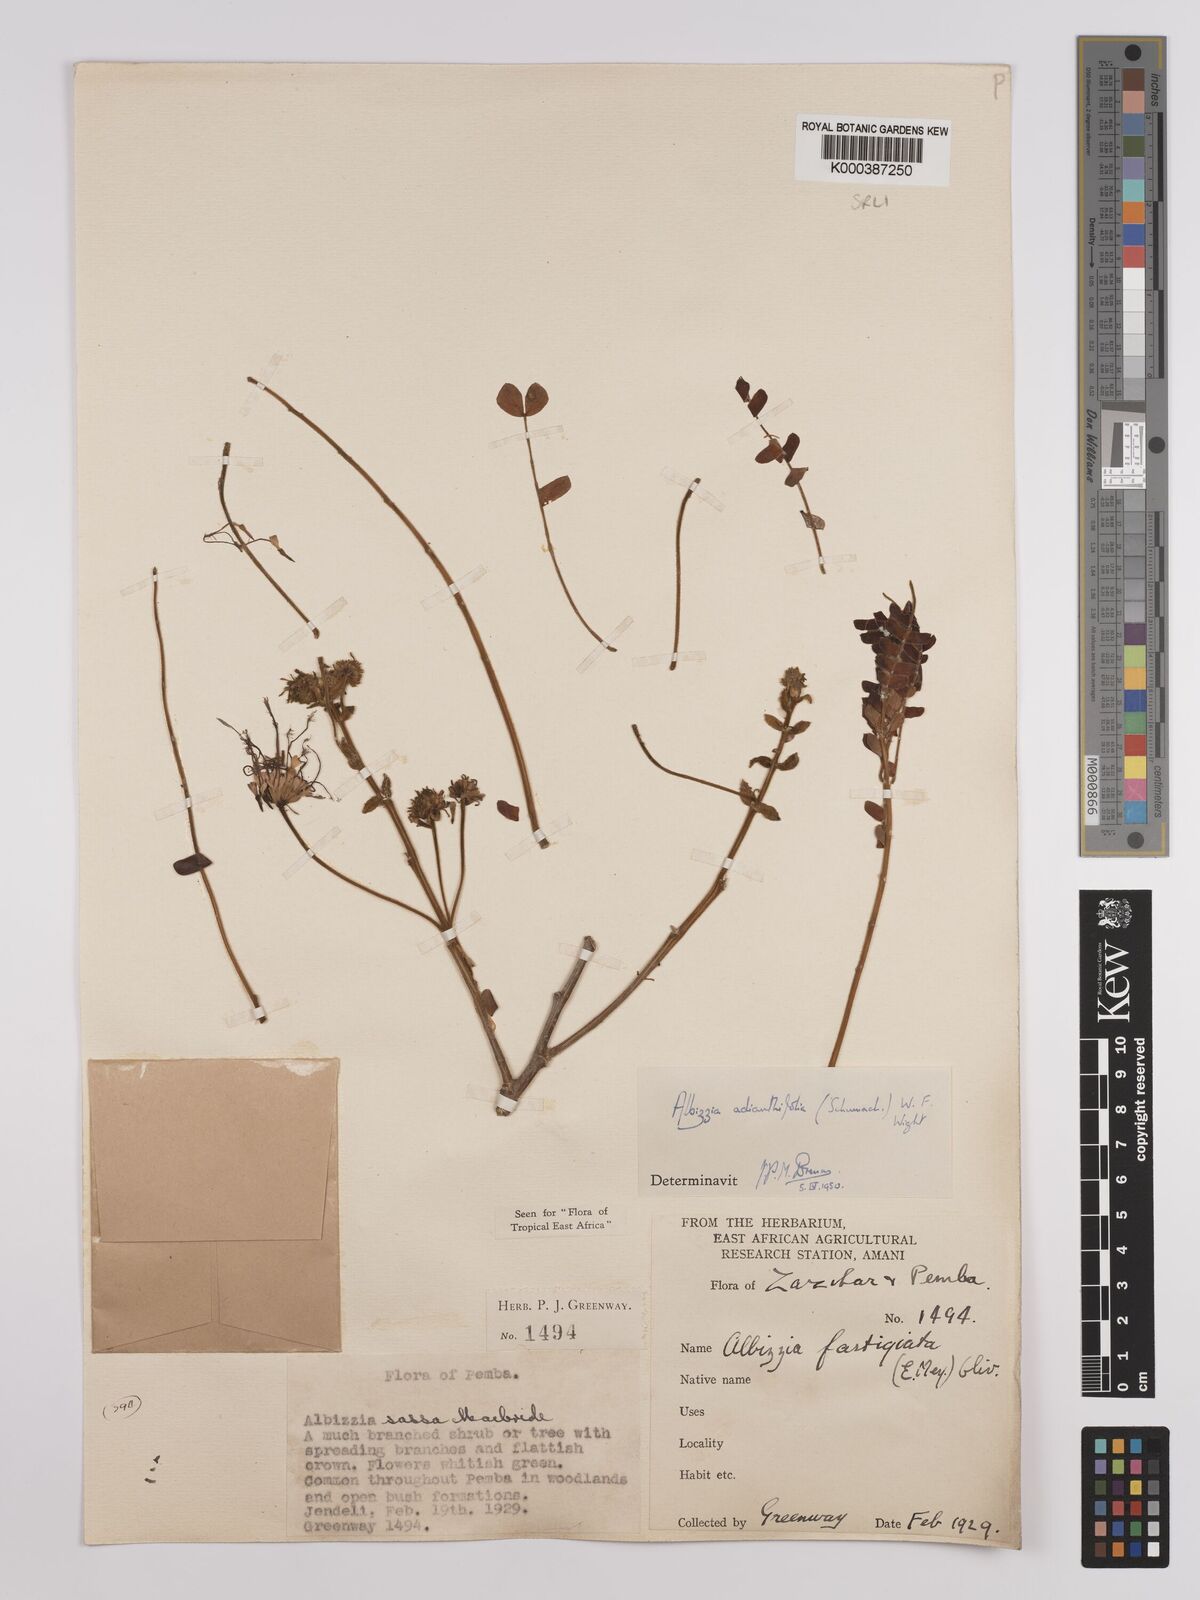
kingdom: Plantae
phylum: Tracheophyta
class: Magnoliopsida
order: Fabales
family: Fabaceae
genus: Albizia
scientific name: Albizia adianthifolia
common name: West african albizia
